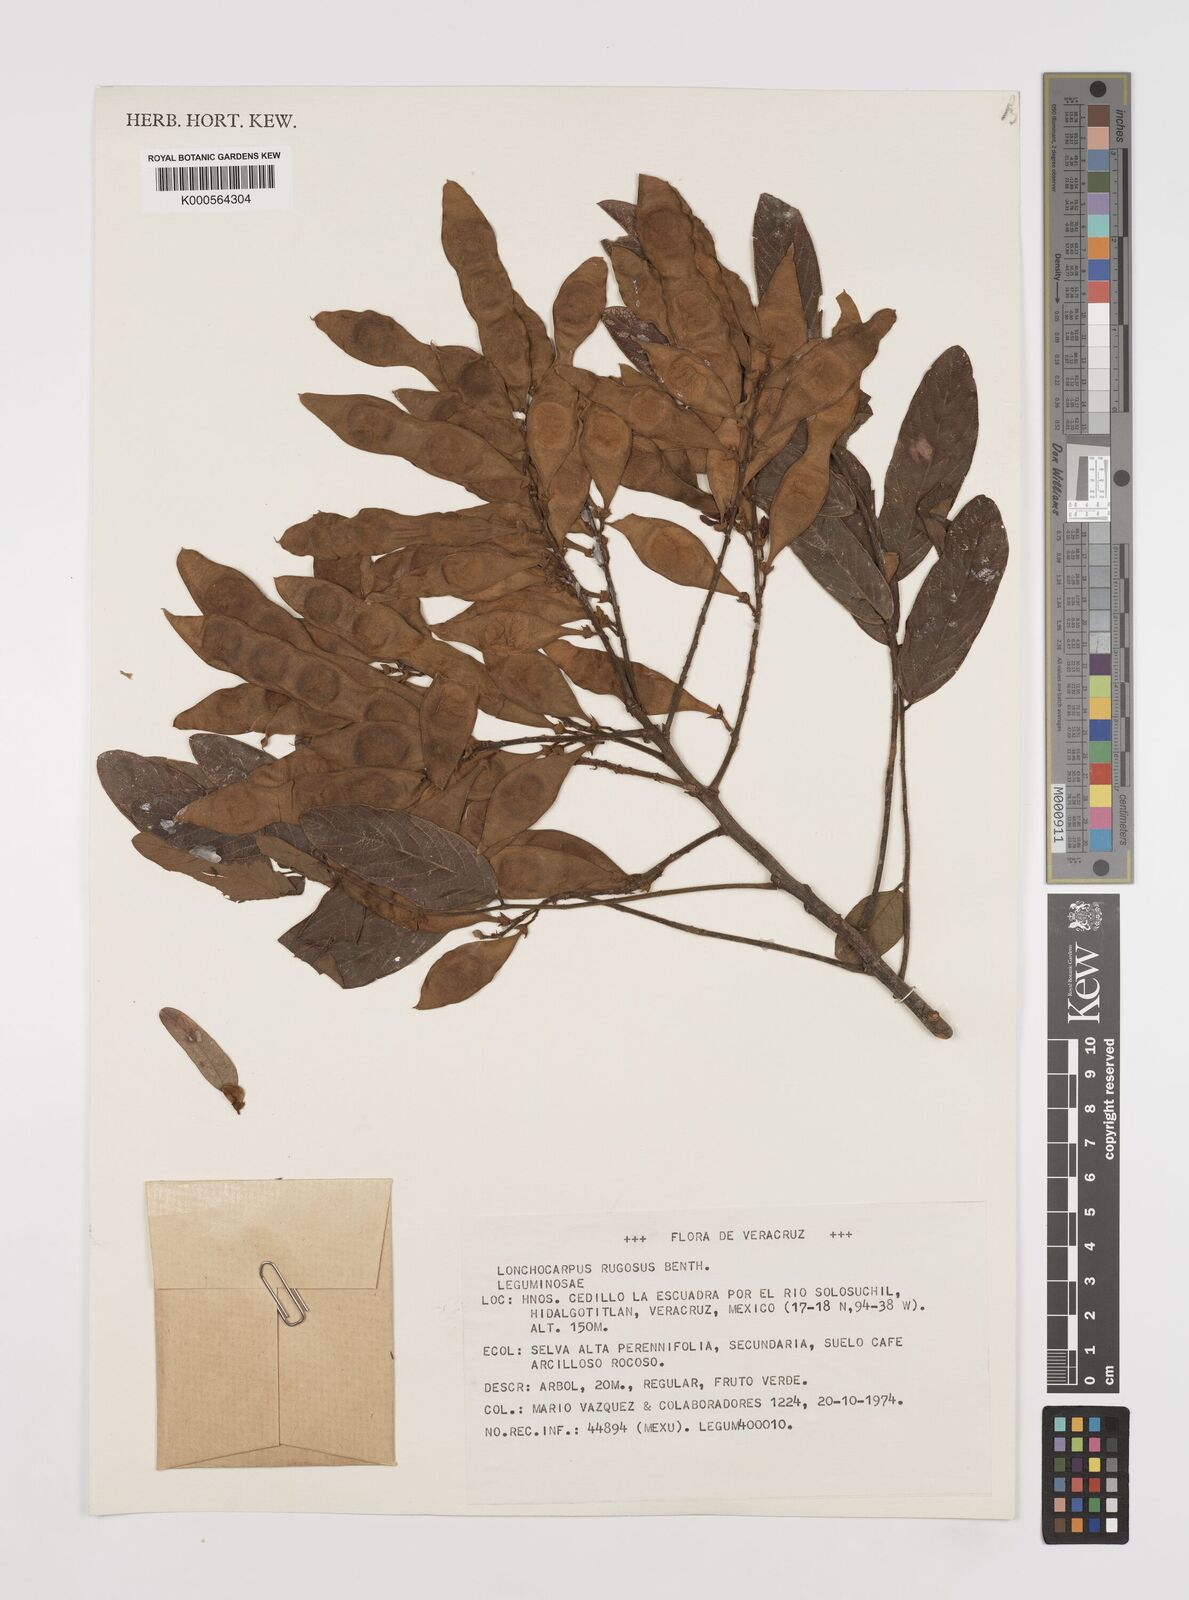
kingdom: Plantae
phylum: Tracheophyta
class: Magnoliopsida
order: Fabales
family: Fabaceae
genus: Lonchocarpus
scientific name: Lonchocarpus rugosus
